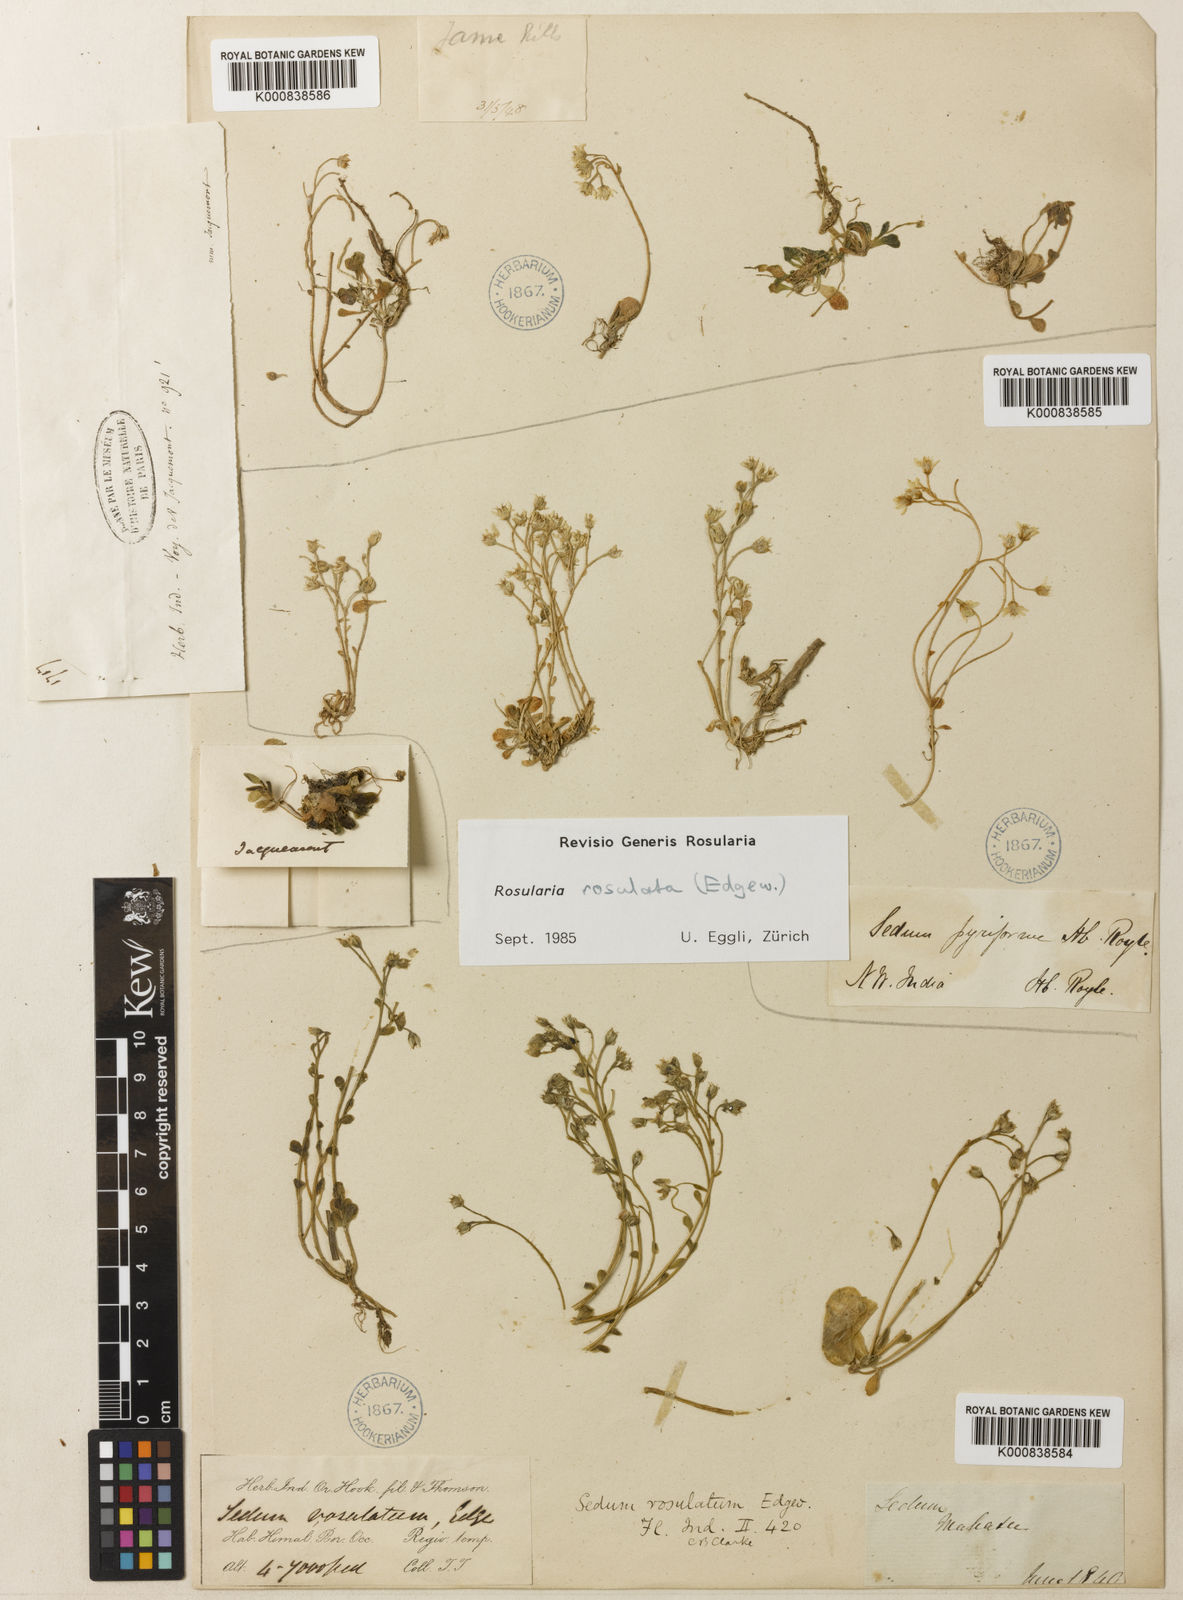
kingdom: Plantae
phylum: Tracheophyta
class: Magnoliopsida
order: Saxifragales
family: Crassulaceae
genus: Rosularia
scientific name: Rosularia rosulata
